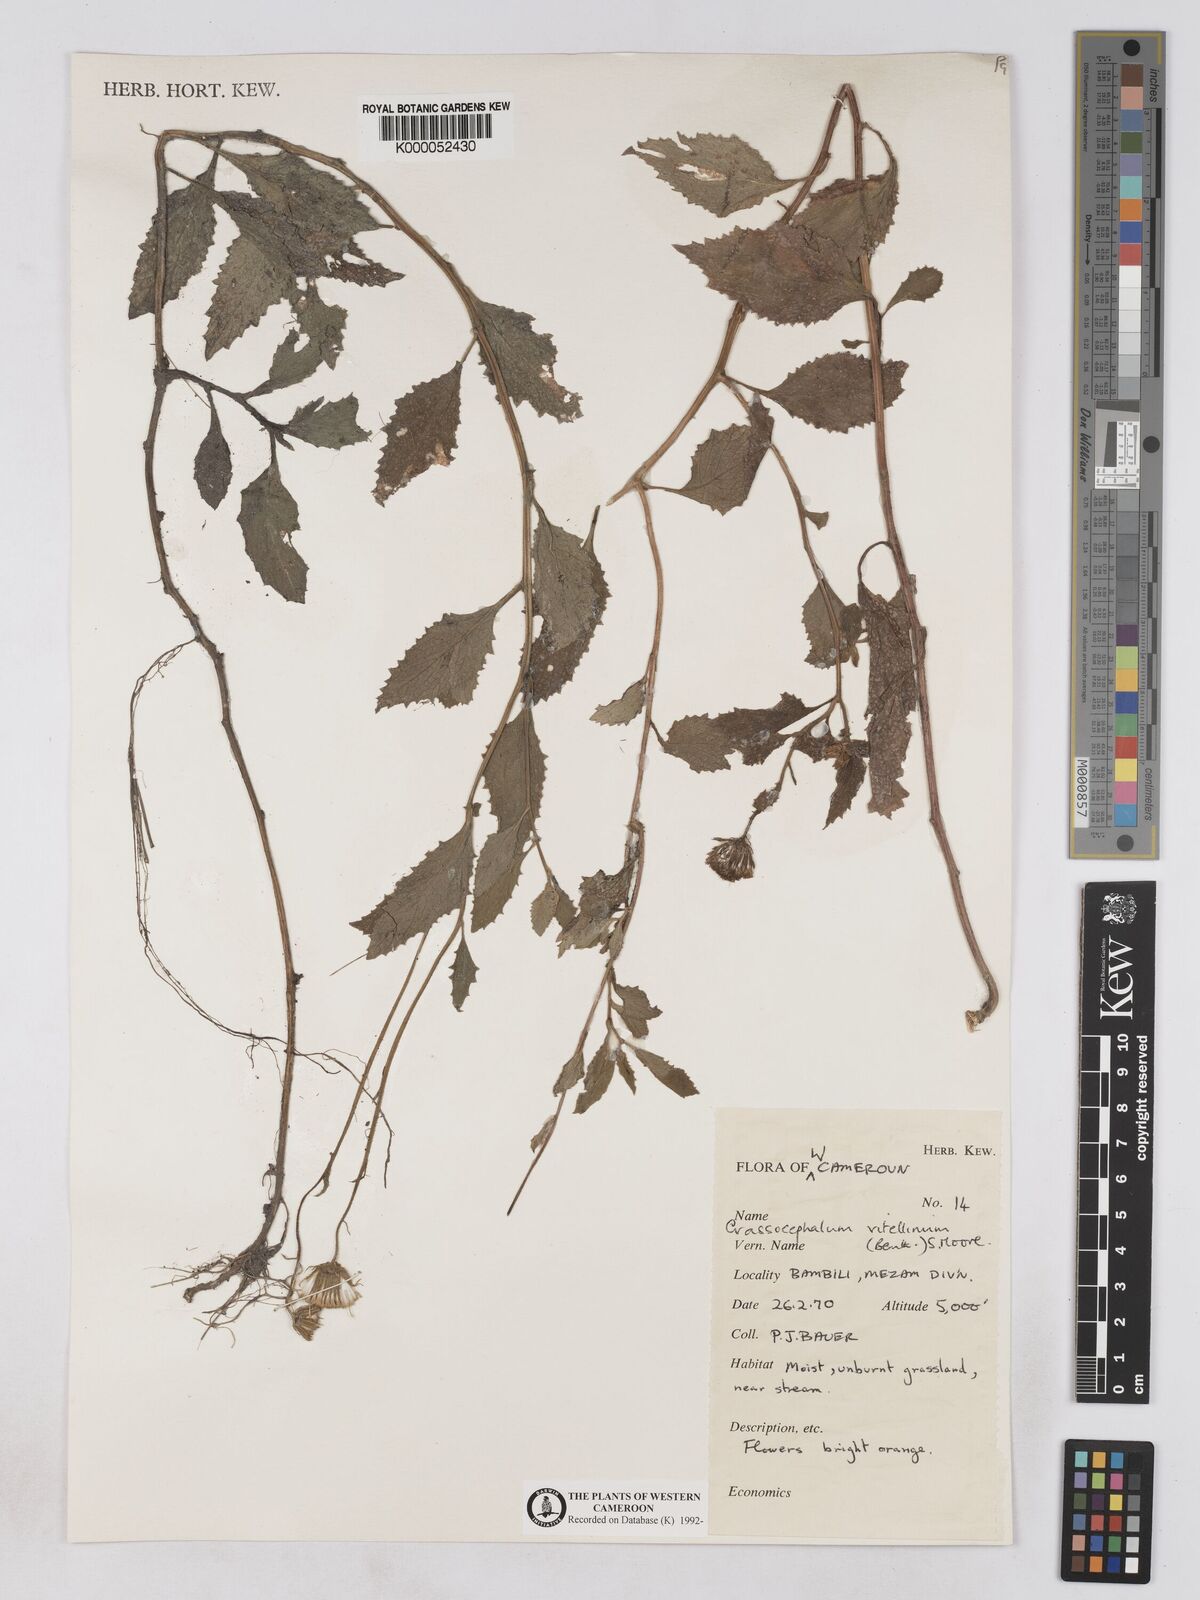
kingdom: Plantae
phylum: Tracheophyta
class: Magnoliopsida
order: Asterales
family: Asteraceae
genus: Crassocephalum
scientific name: Crassocephalum vitellinum
